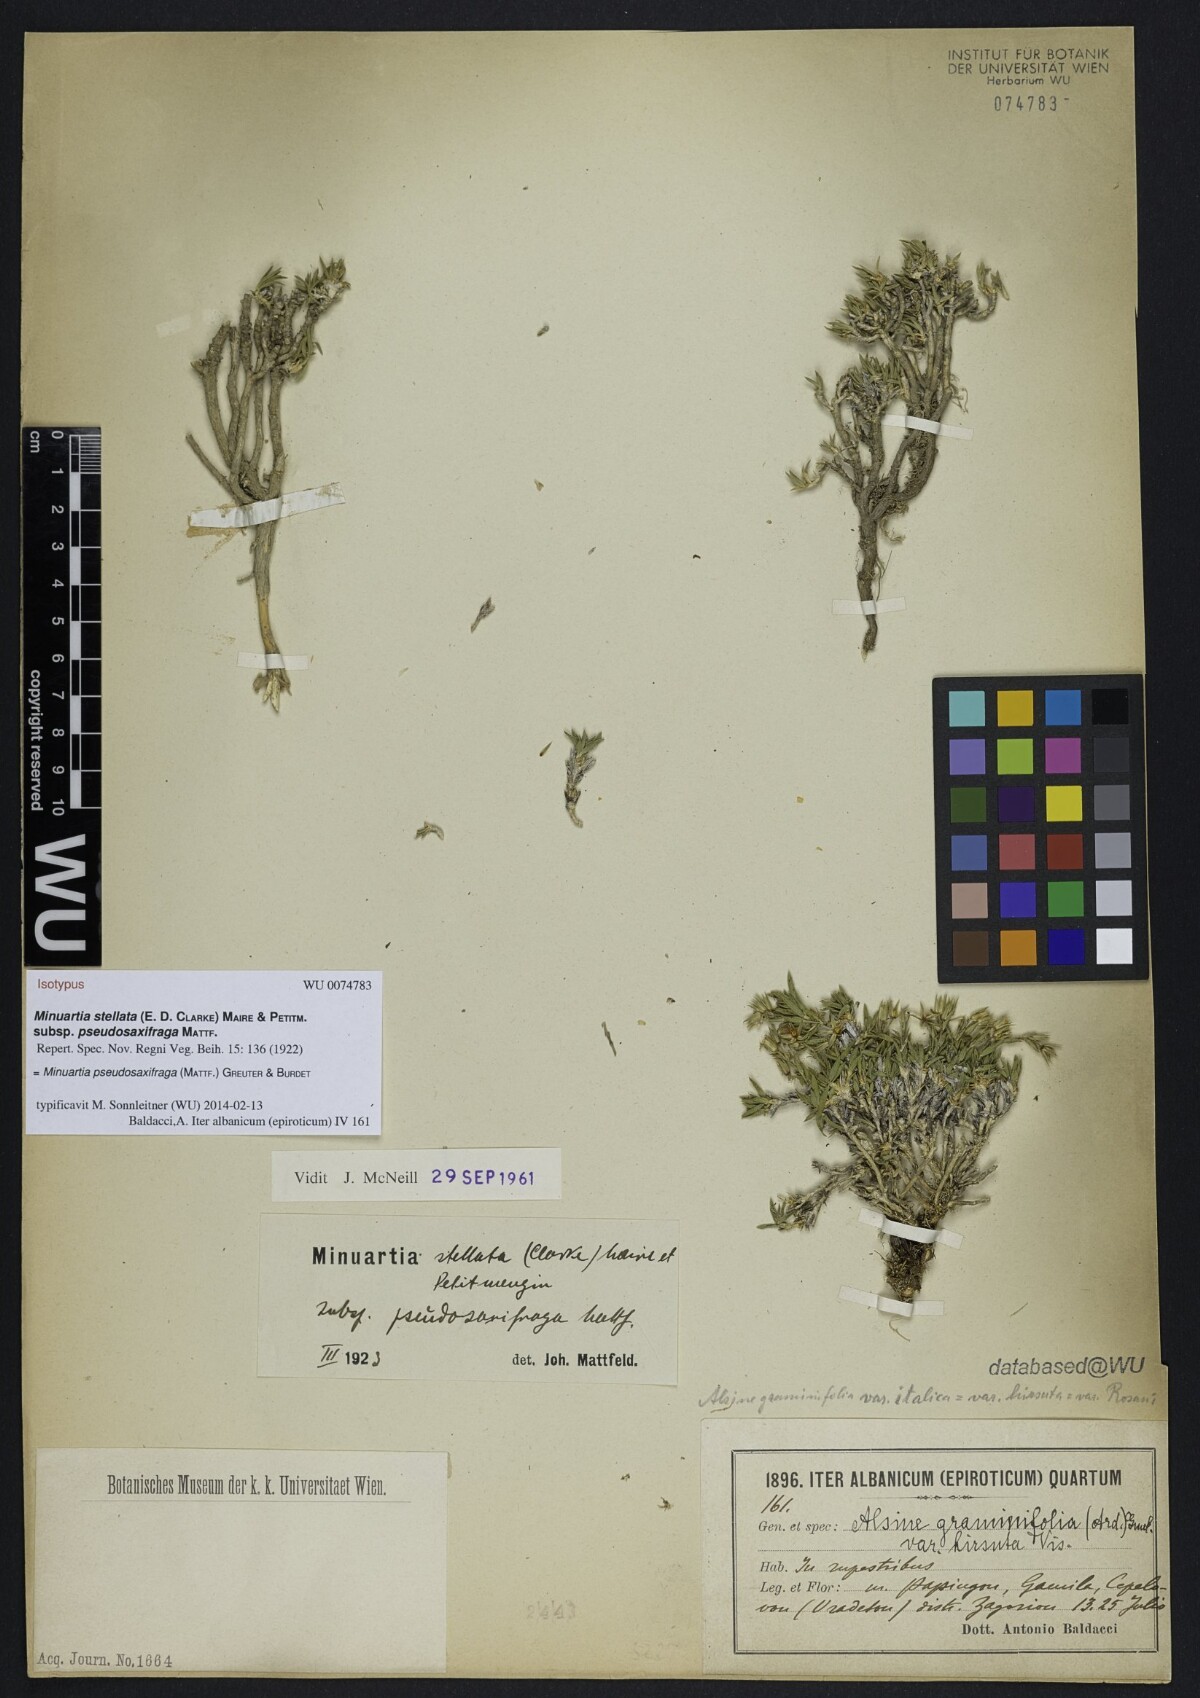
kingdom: Plantae
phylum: Tracheophyta
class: Magnoliopsida
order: Caryophyllales
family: Caryophyllaceae
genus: Mcneillia
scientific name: Mcneillia pseudosaxifraga
